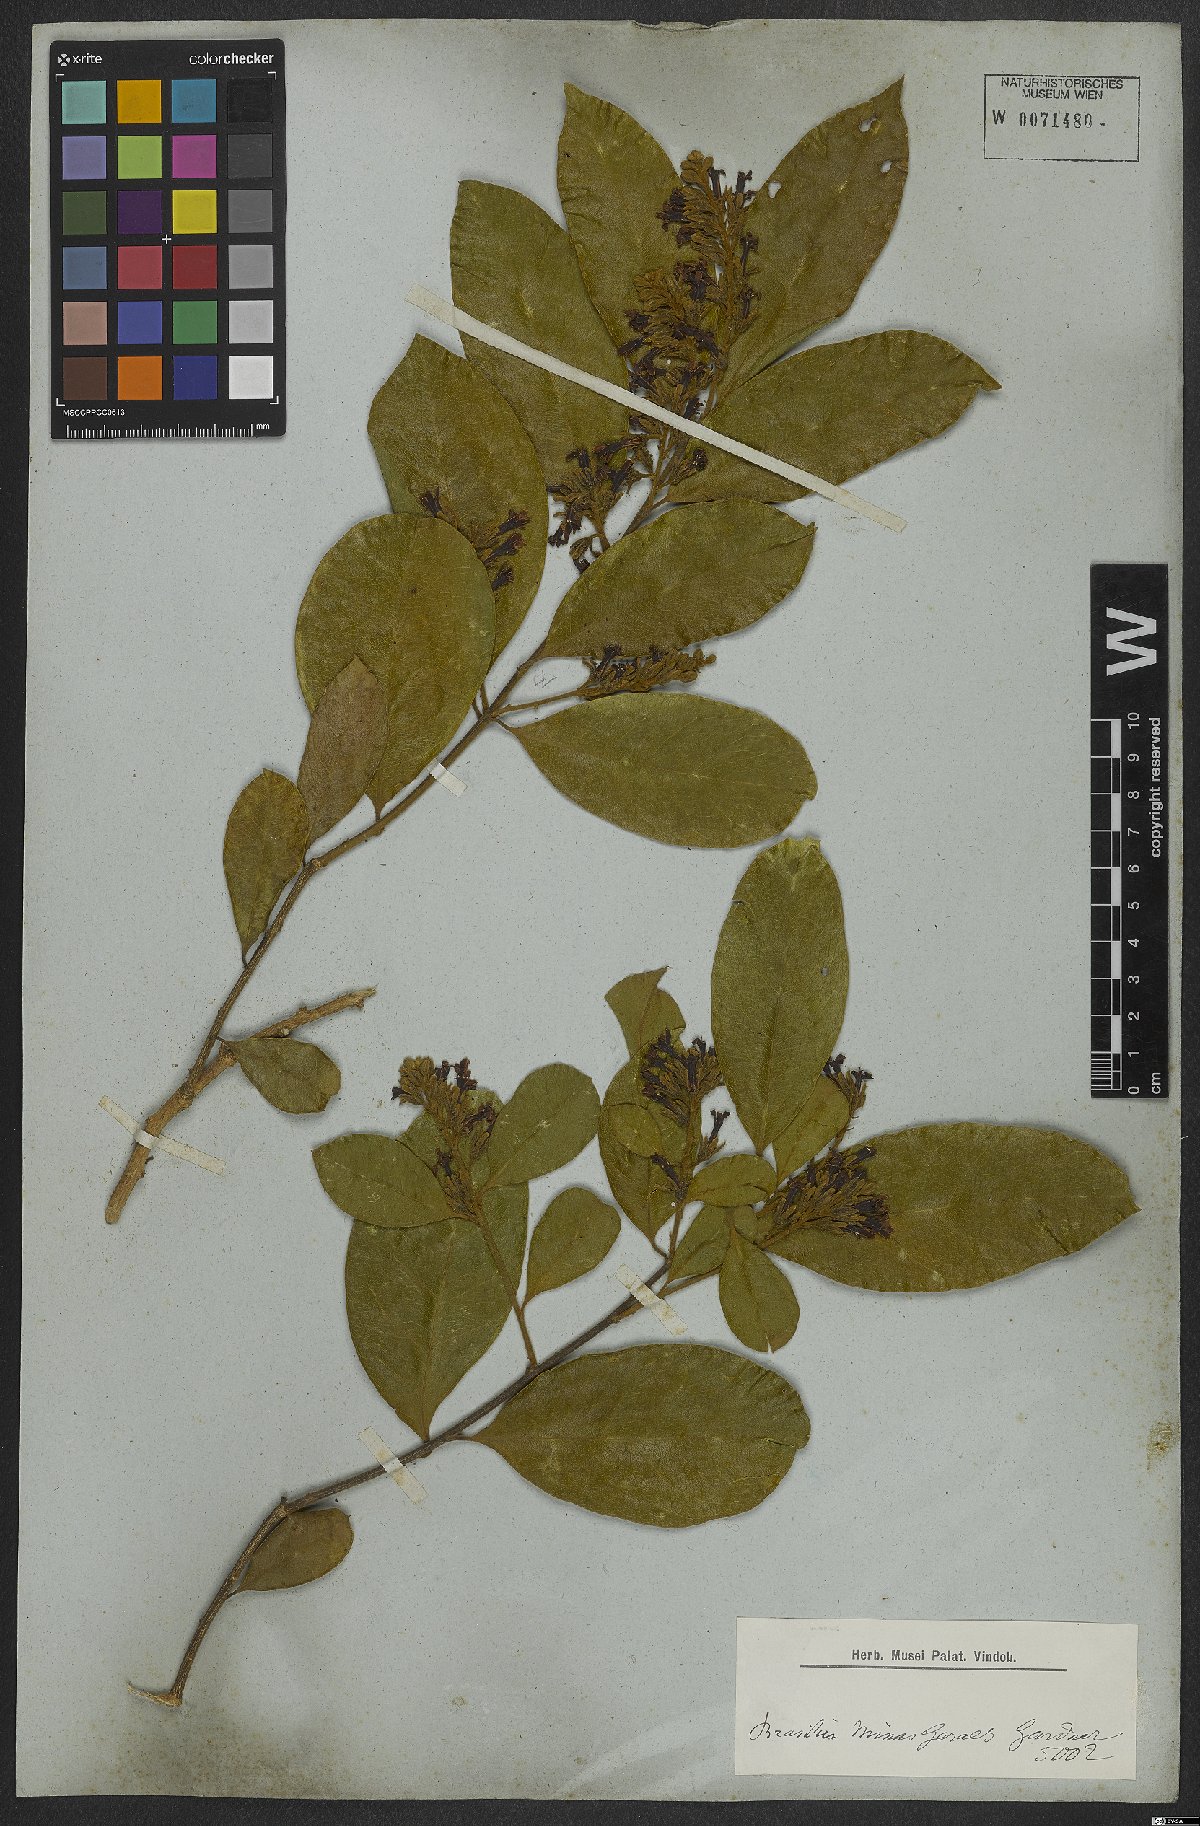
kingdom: Plantae
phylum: Tracheophyta
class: Magnoliopsida
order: Fabales
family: Polygalaceae
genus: Diclidanthera
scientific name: Diclidanthera laurifolia
